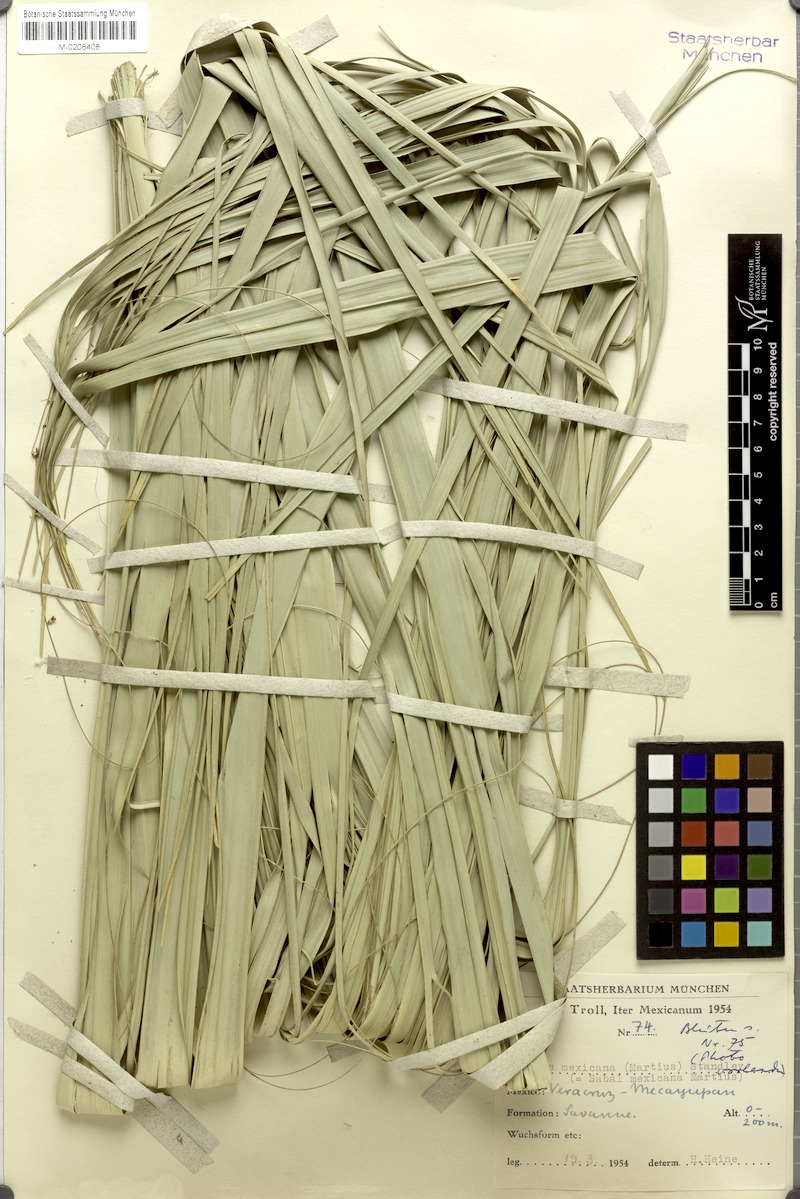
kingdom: Plantae
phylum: Tracheophyta
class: Liliopsida
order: Arecales
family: Arecaceae
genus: Sabal
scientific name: Sabal mexicana
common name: Texas palmetto
